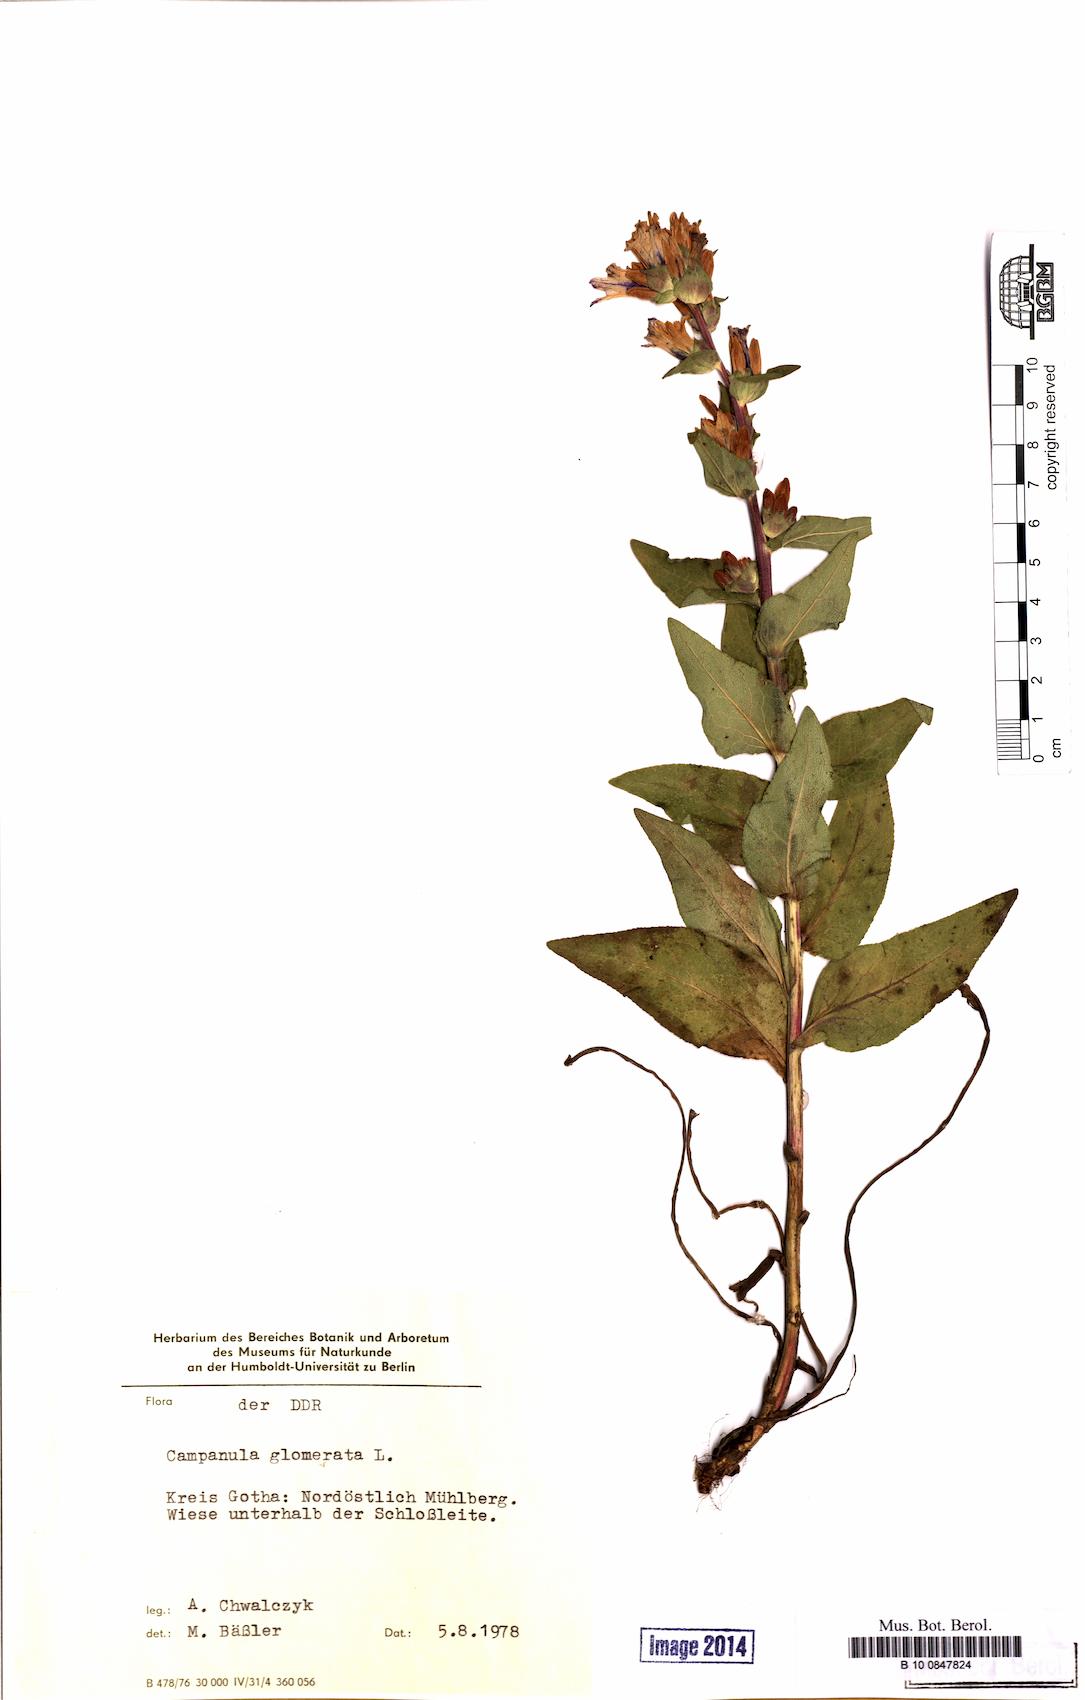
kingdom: Plantae
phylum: Tracheophyta
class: Magnoliopsida
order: Asterales
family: Campanulaceae
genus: Campanula
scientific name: Campanula glomerata
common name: Clustered bellflower
